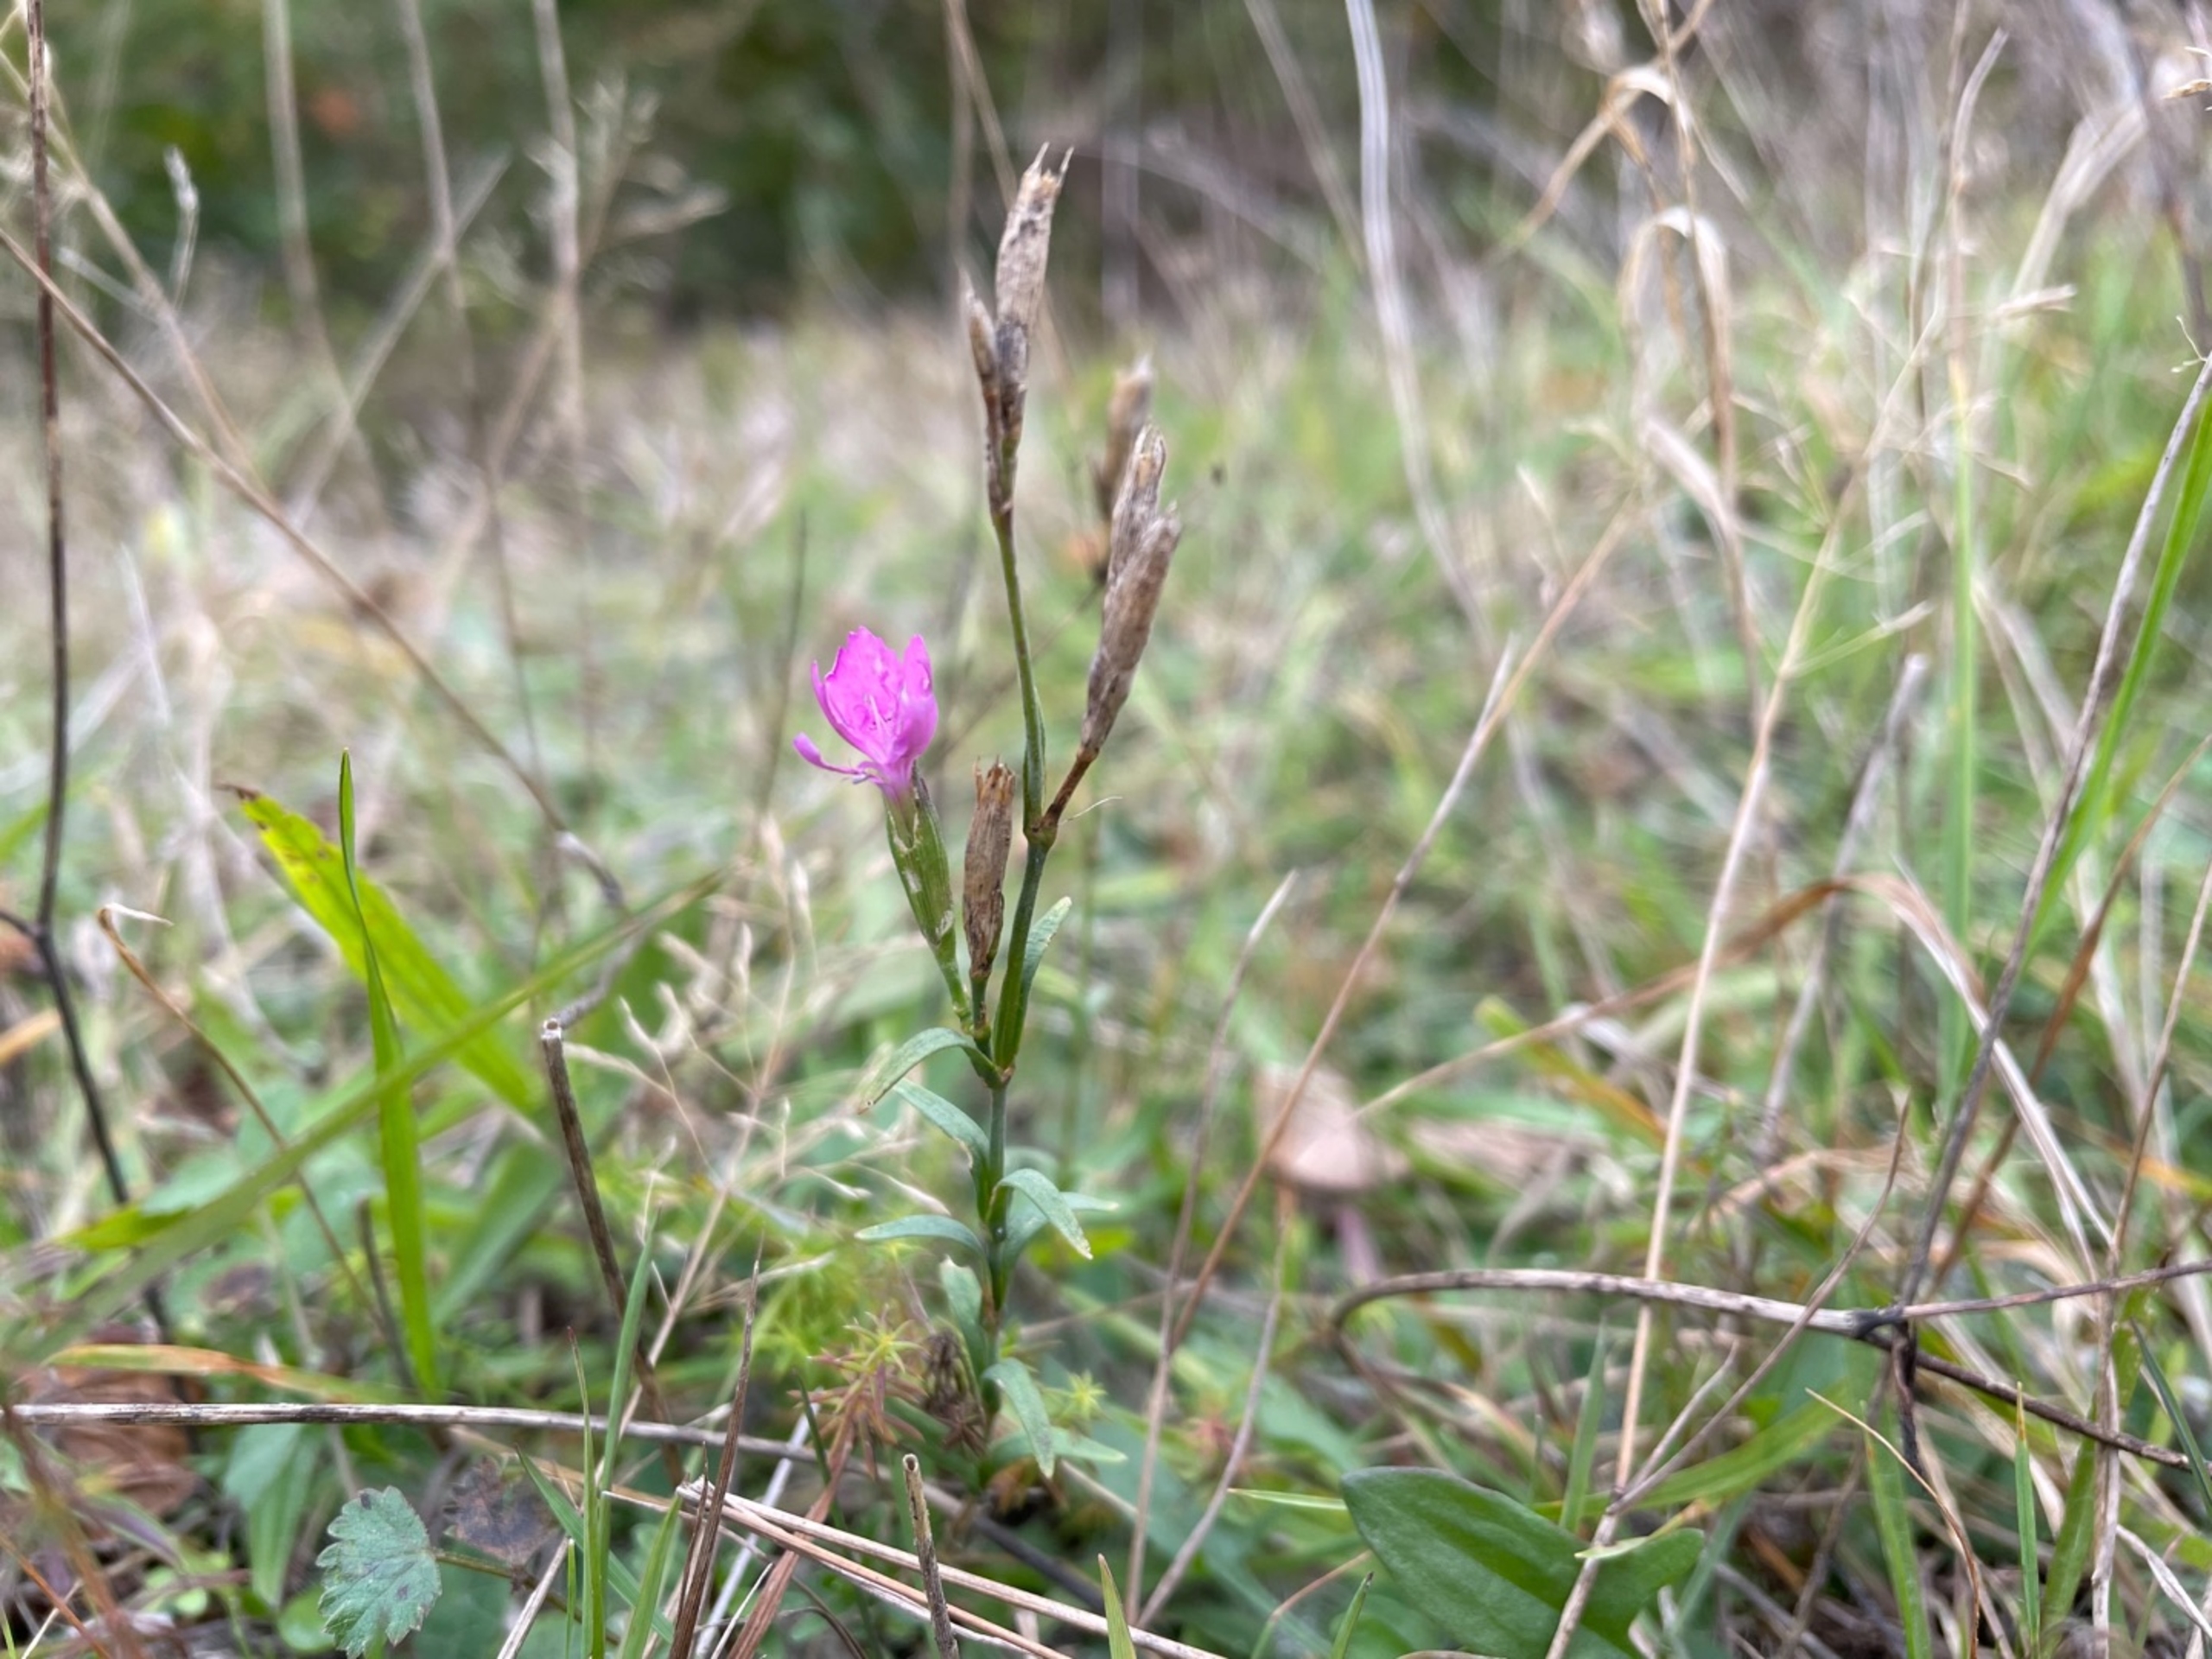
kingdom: Plantae
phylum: Tracheophyta
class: Magnoliopsida
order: Caryophyllales
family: Caryophyllaceae
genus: Dianthus
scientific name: Dianthus deltoides
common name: Bakke-nellike
